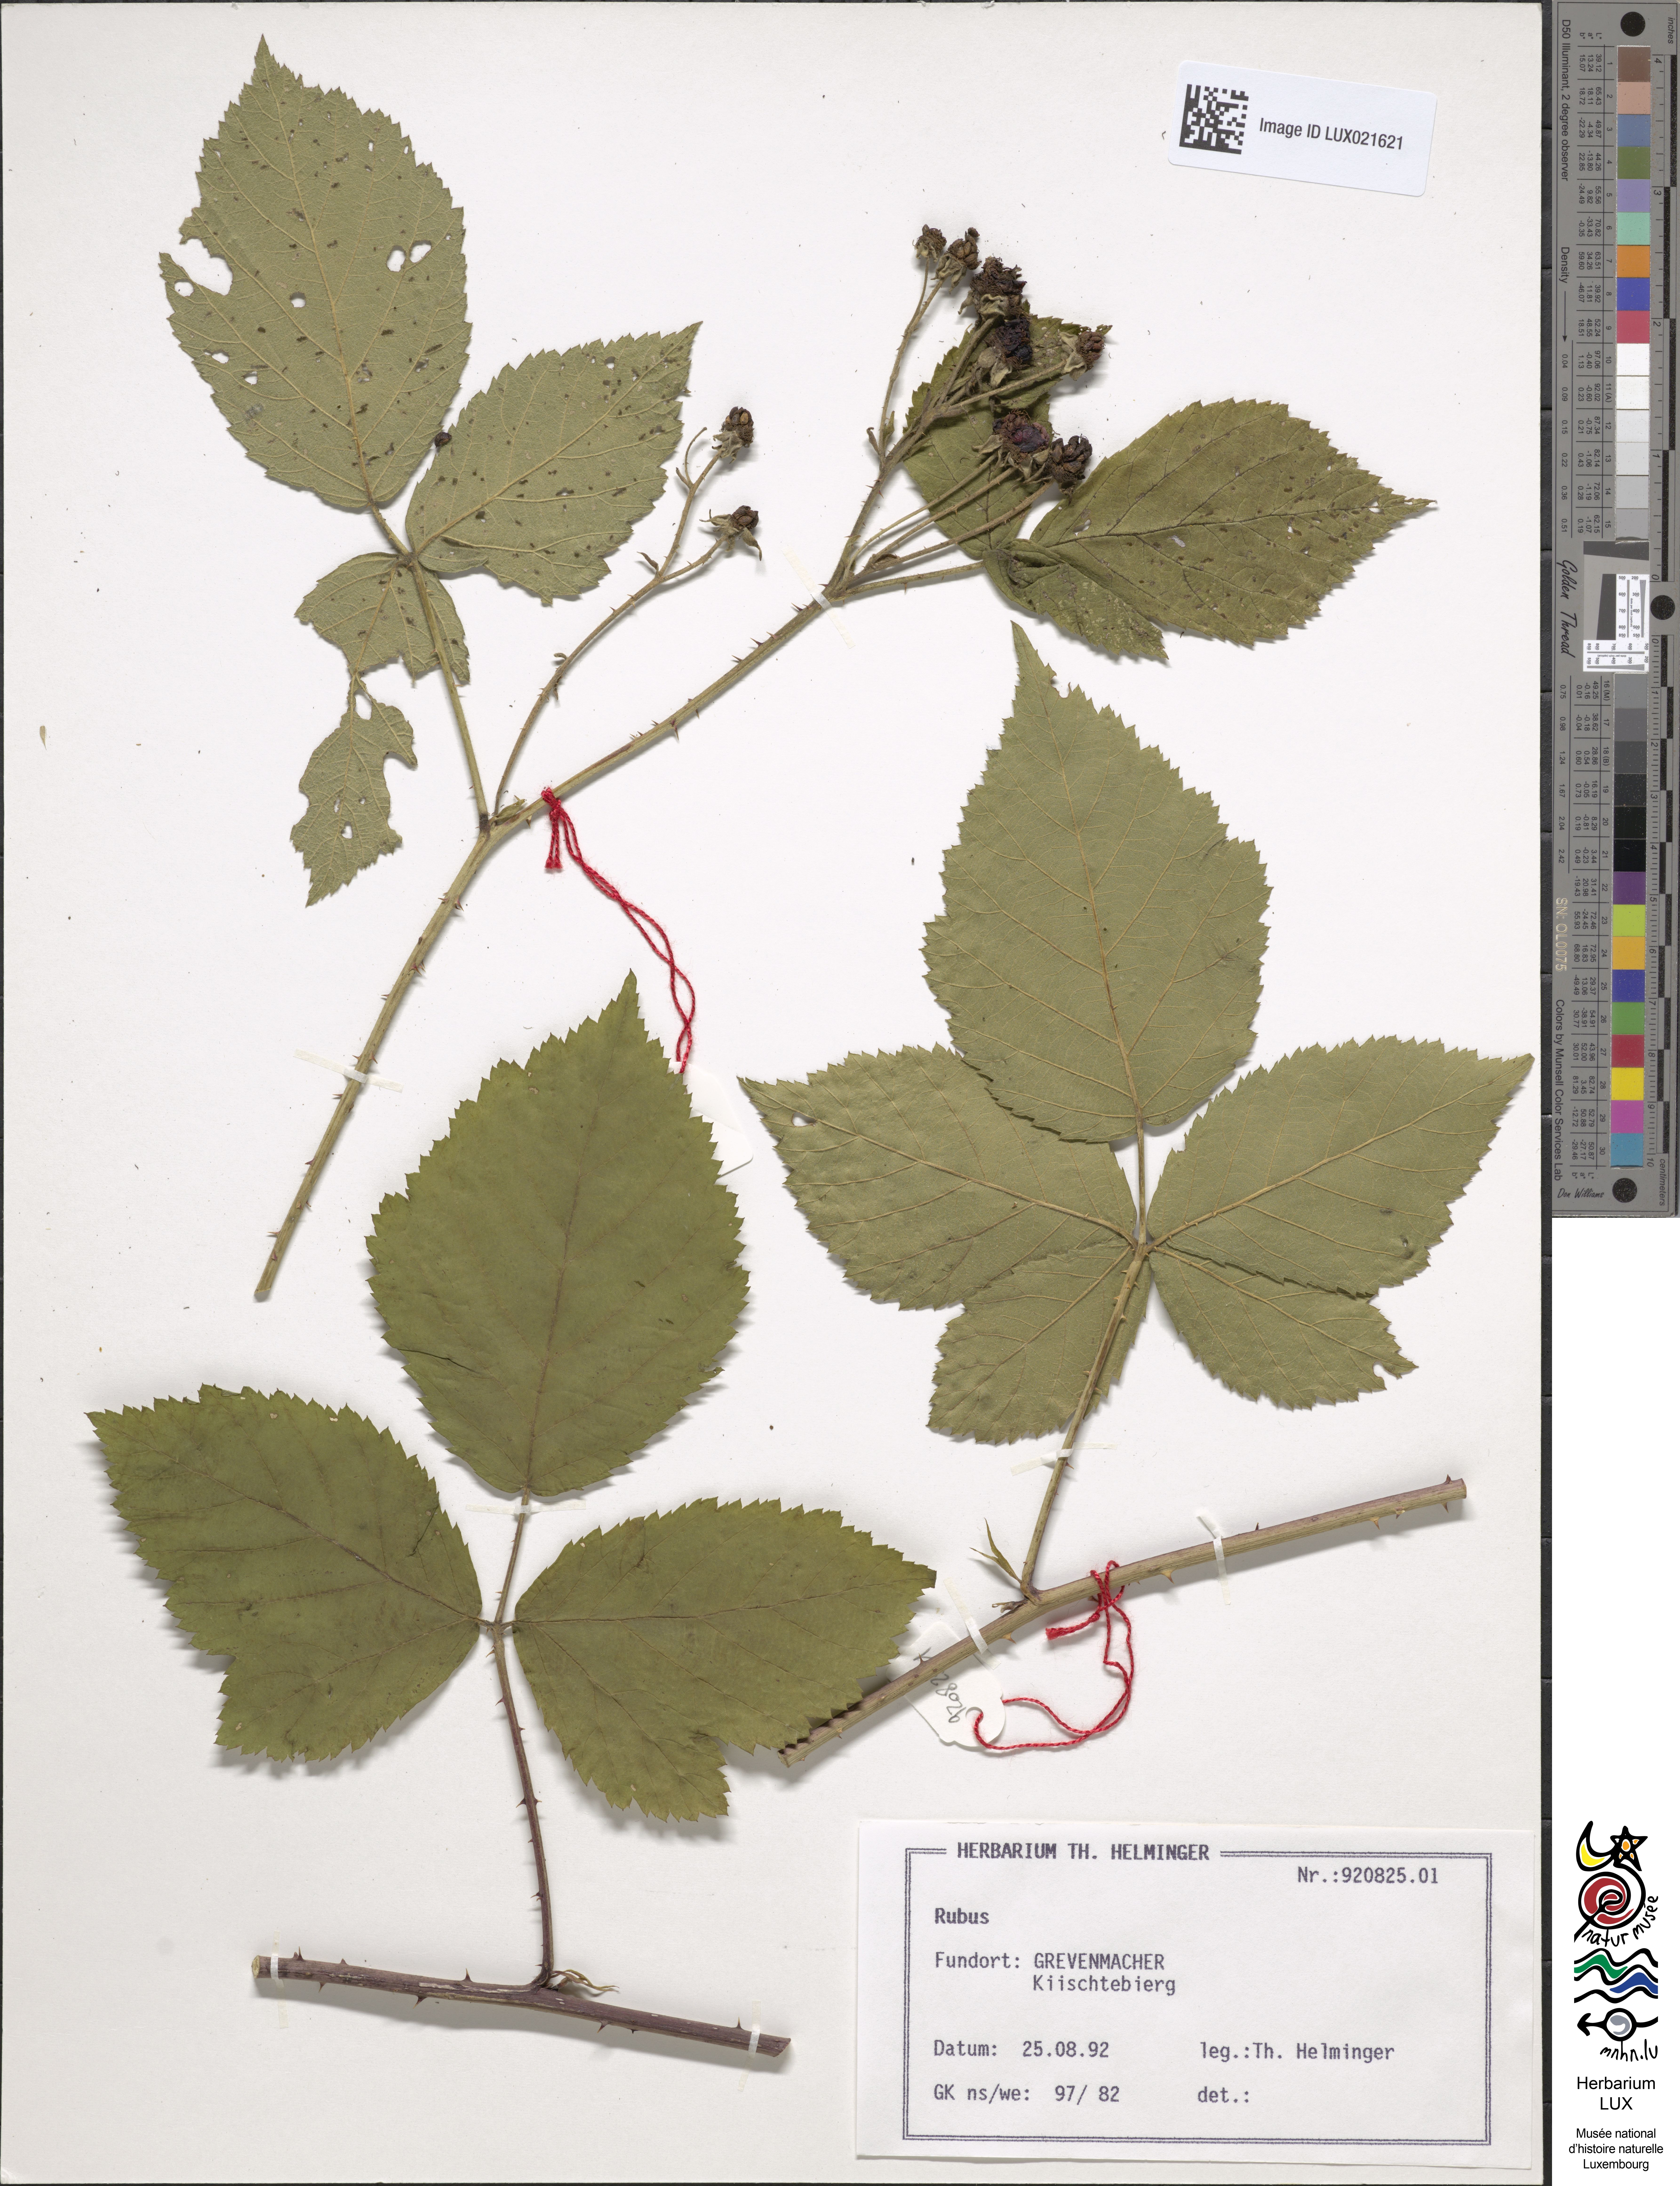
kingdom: Plantae
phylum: Tracheophyta
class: Magnoliopsida
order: Rosales
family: Rosaceae
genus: Rubus
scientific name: Rubus
